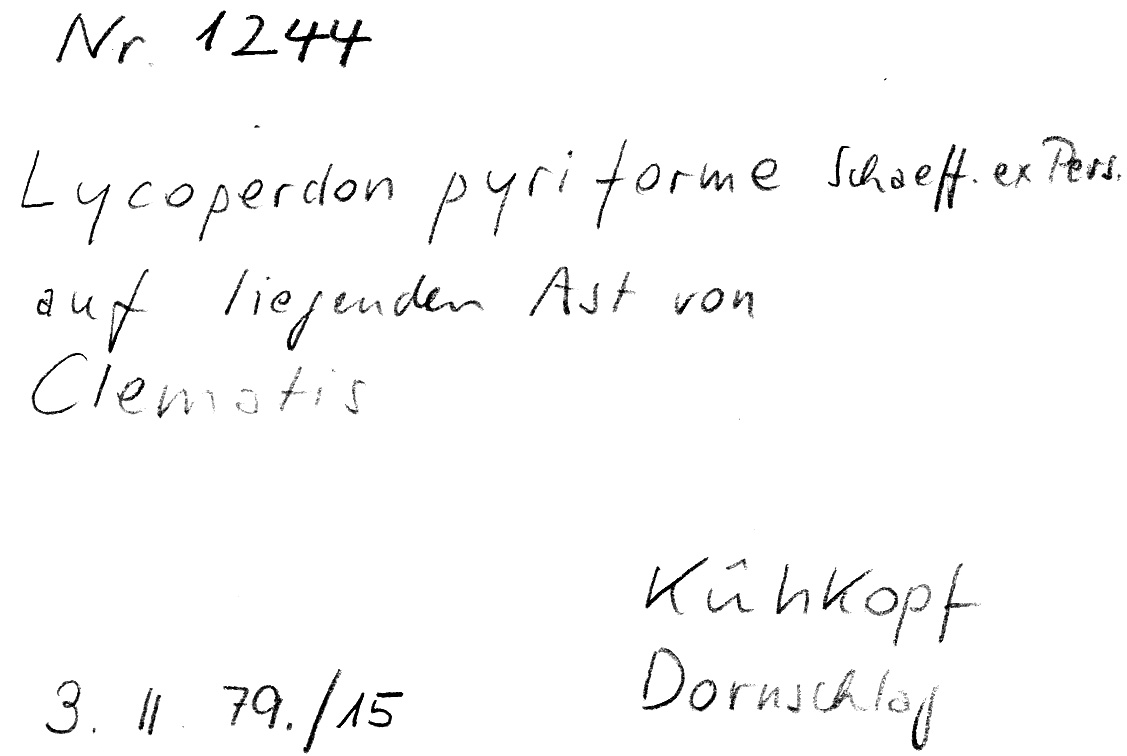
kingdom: Plantae
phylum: Tracheophyta
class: Magnoliopsida
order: Ranunculales
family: Ranunculaceae
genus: Clematis
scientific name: Clematis
